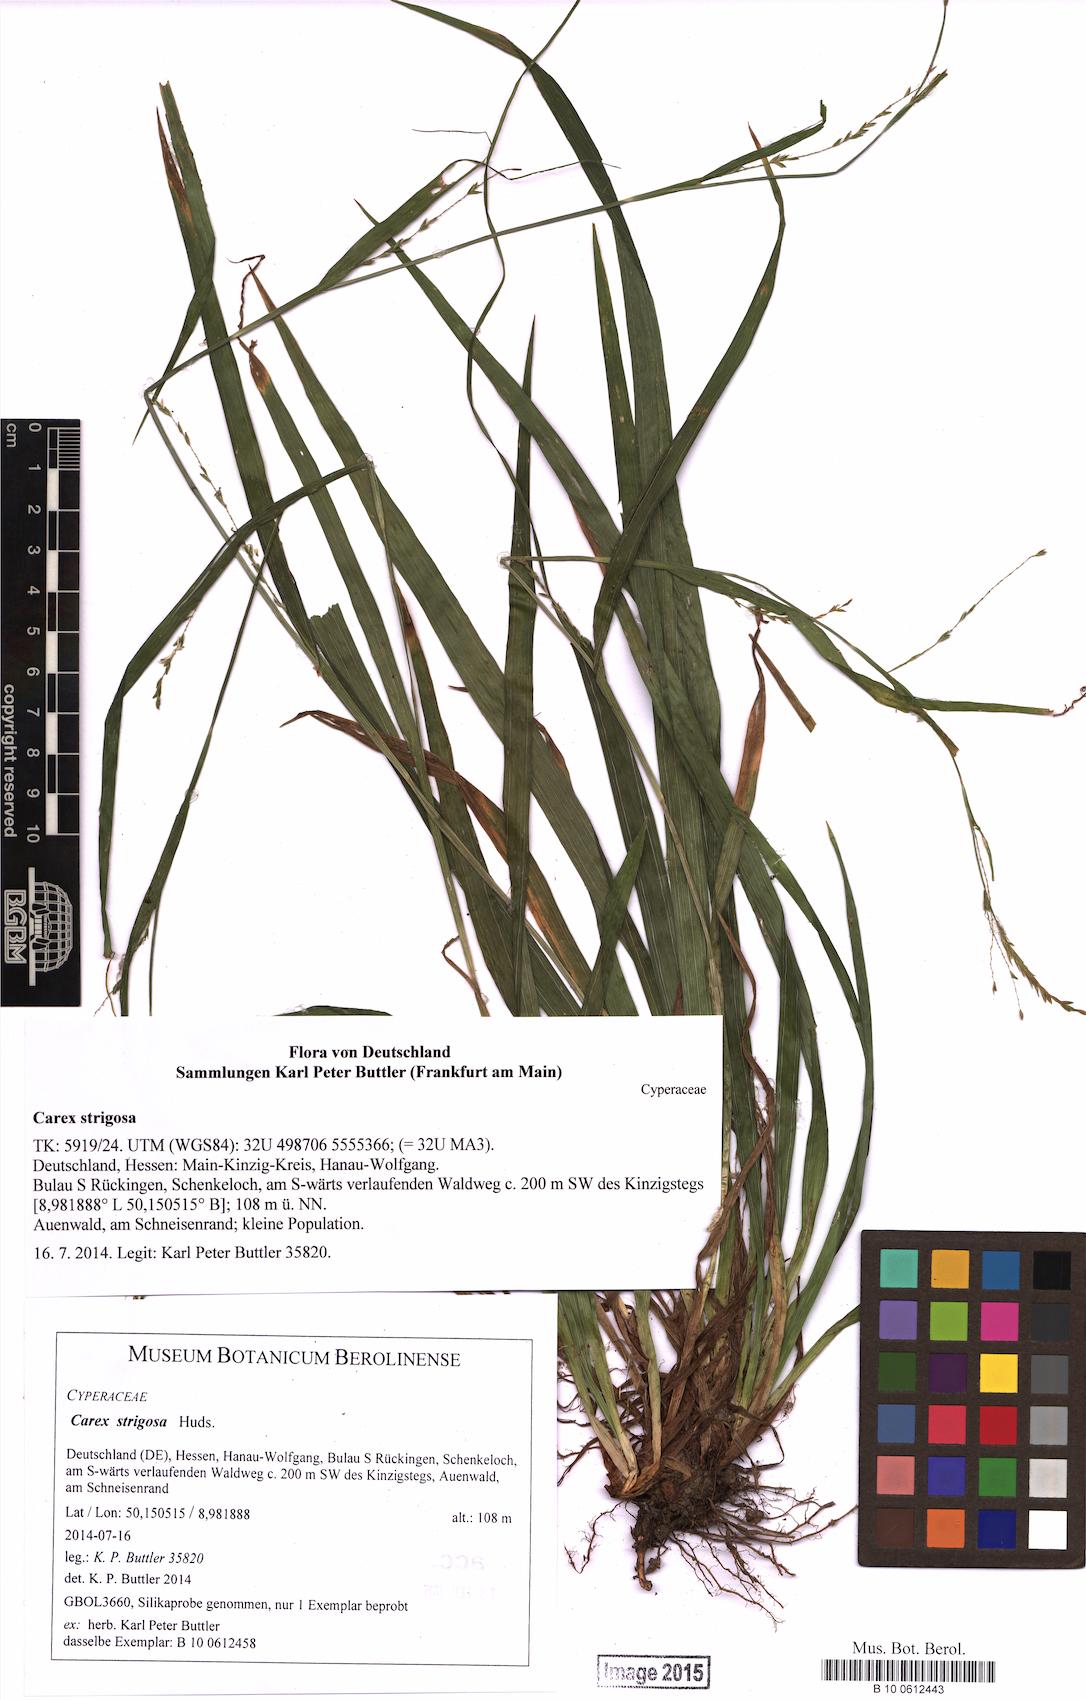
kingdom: Plantae
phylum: Tracheophyta
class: Liliopsida
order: Poales
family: Cyperaceae
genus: Carex
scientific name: Carex strigosa
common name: Thin-spiked wood-sedge
